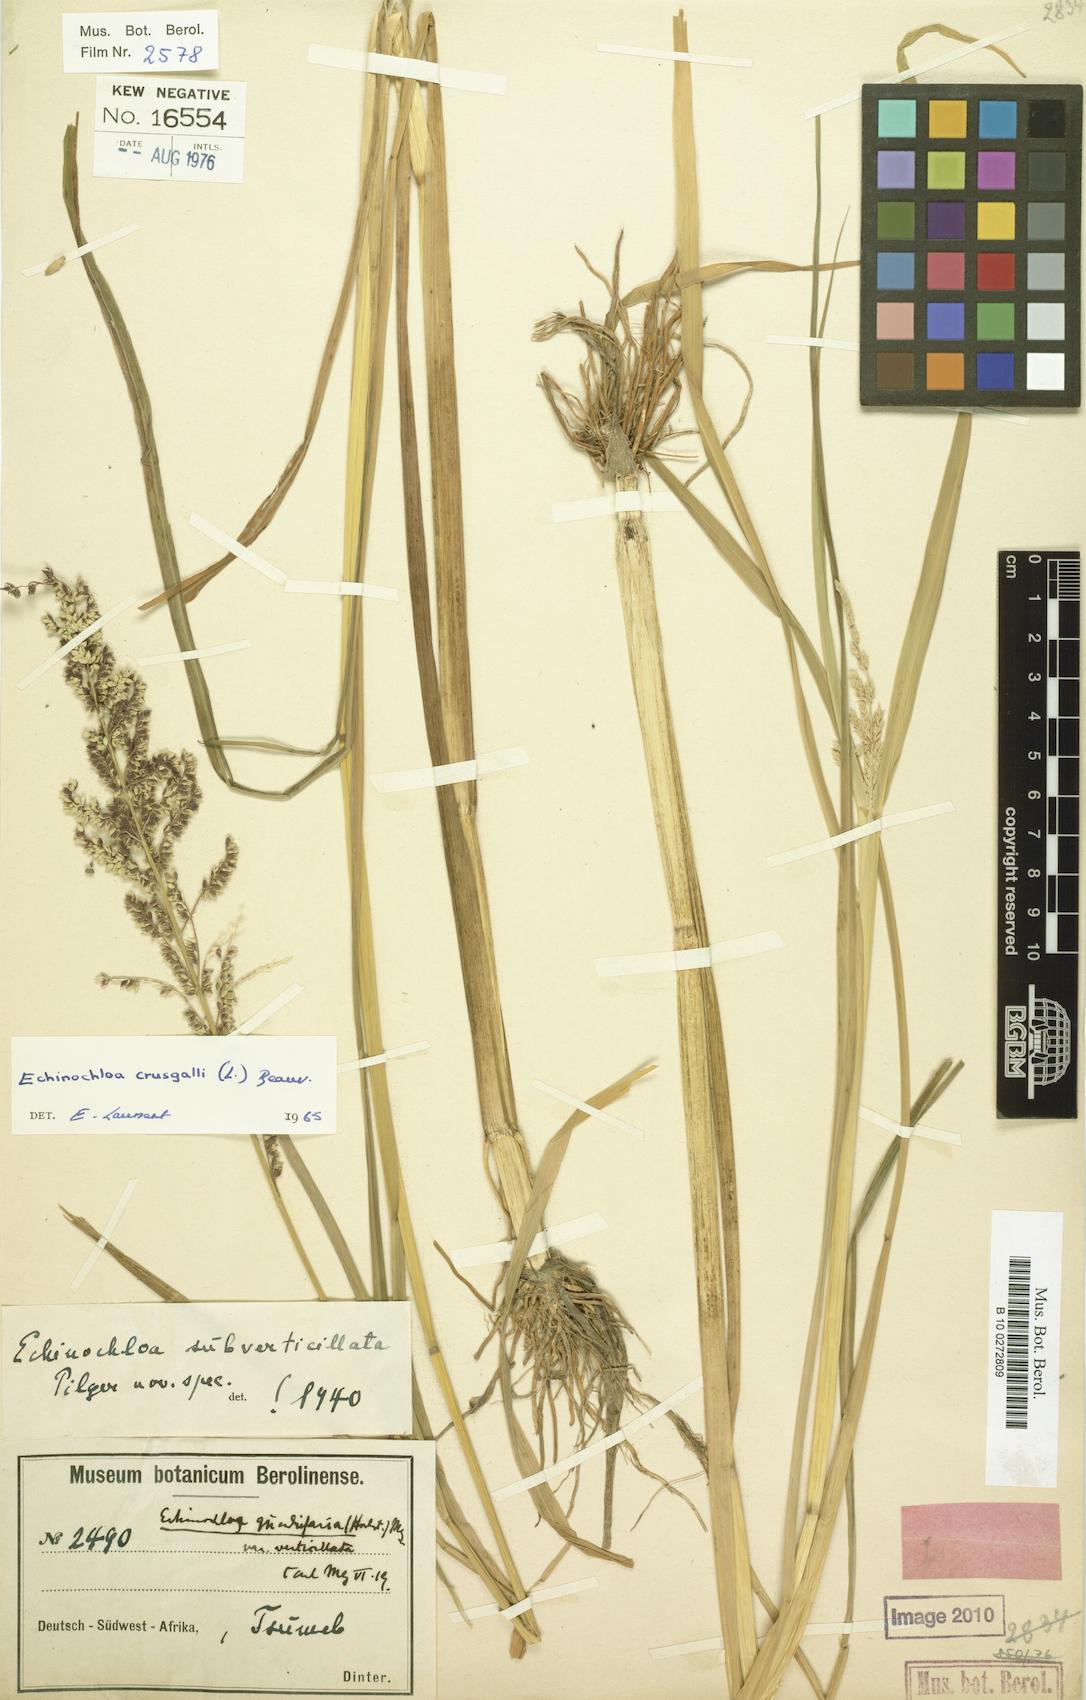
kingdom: Plantae
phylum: Tracheophyta
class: Liliopsida
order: Poales
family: Poaceae
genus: Echinochloa
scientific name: Echinochloa colonum
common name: Jungle rice
